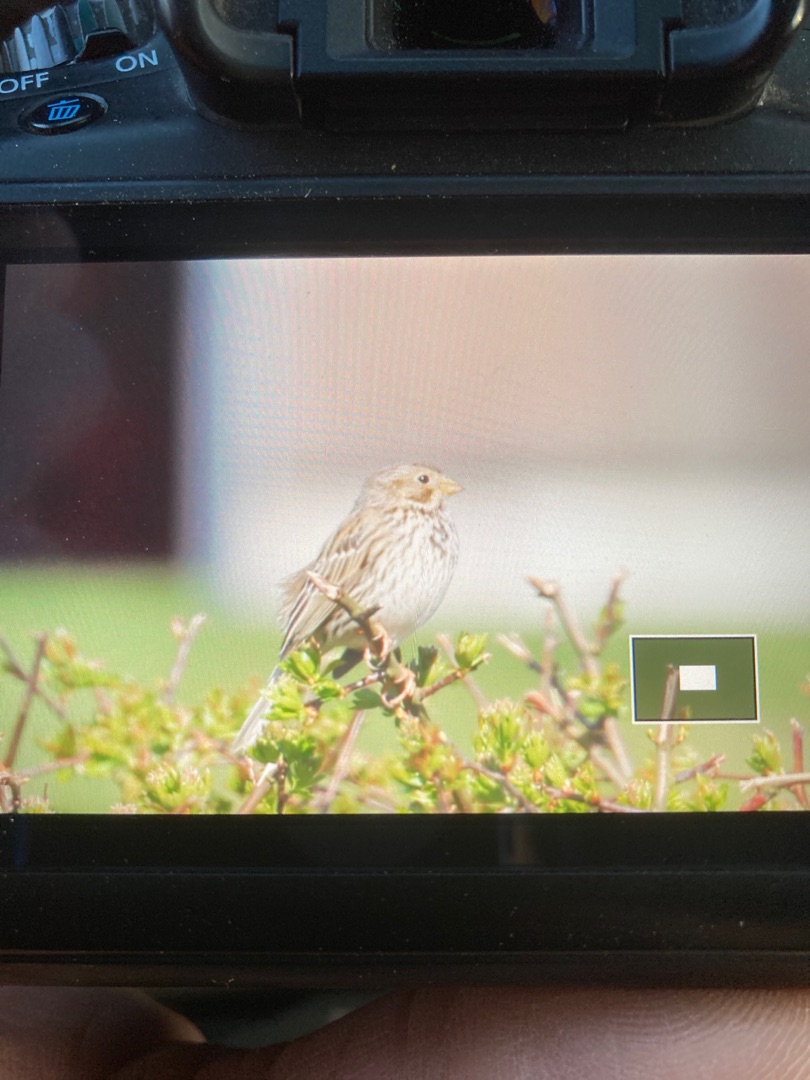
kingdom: Animalia
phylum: Chordata
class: Aves
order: Passeriformes
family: Emberizidae
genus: Emberiza
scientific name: Emberiza calandra
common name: Bomlærke
